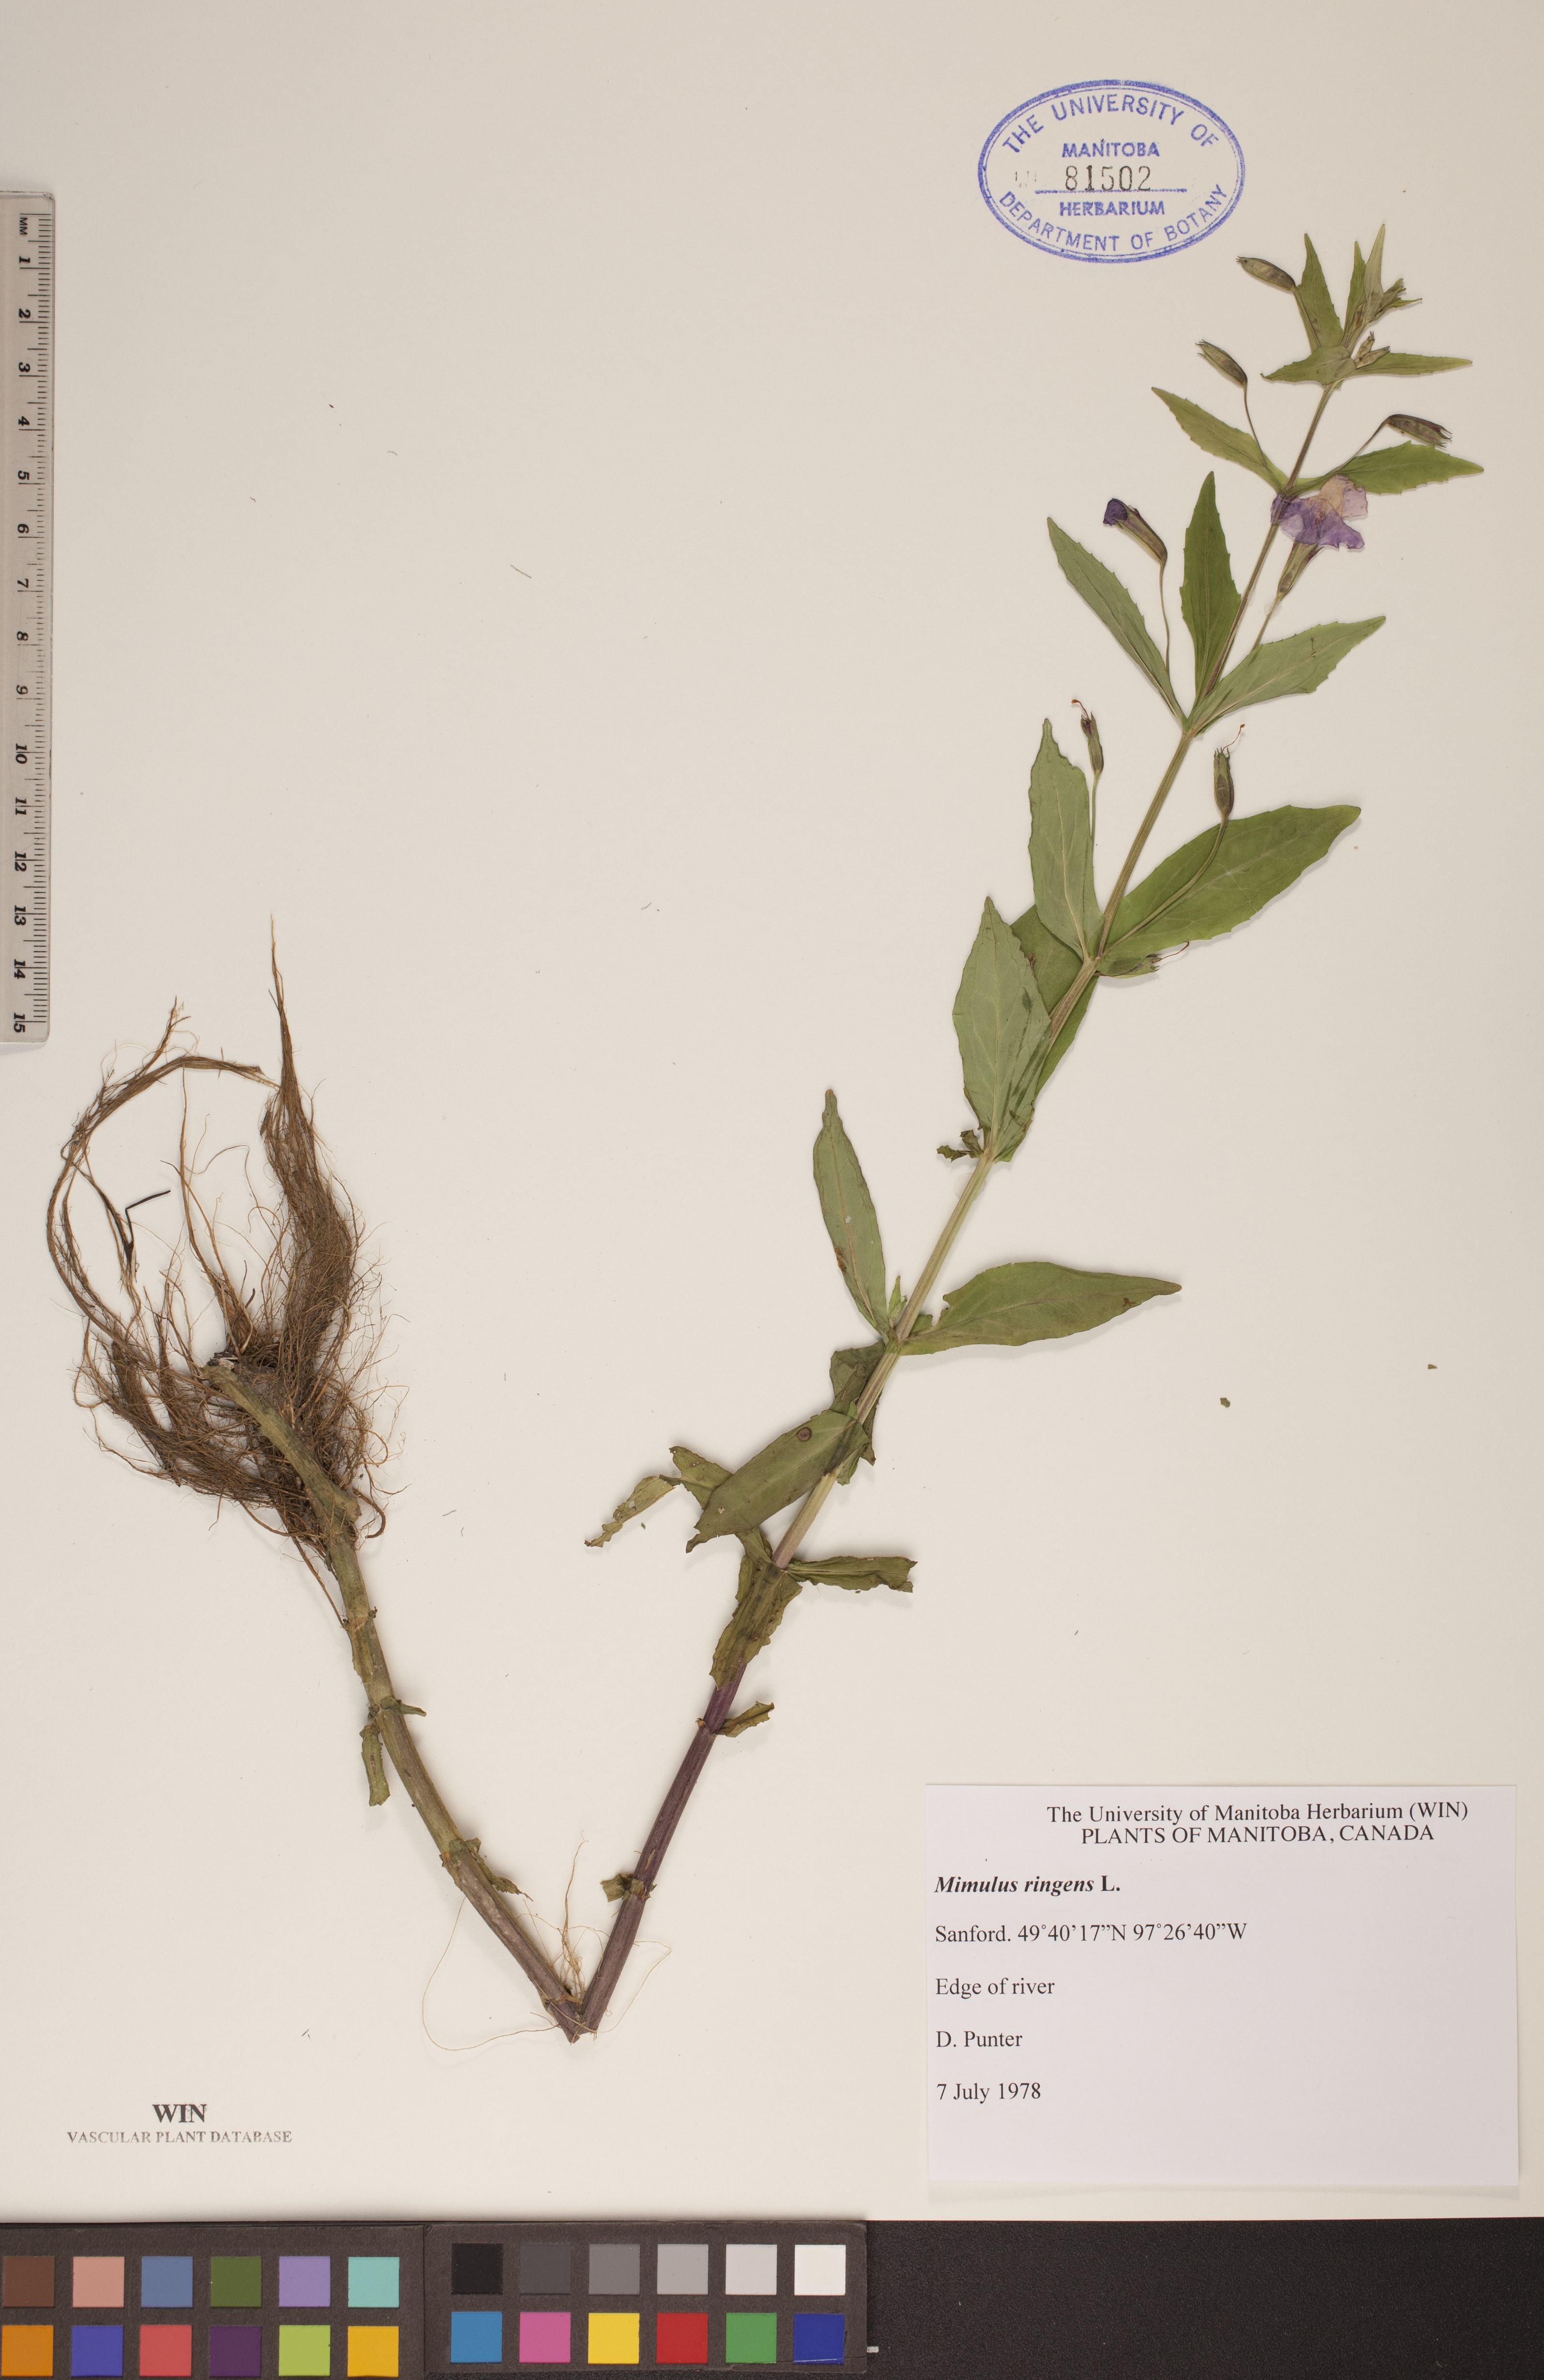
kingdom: Plantae
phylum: Tracheophyta
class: Magnoliopsida
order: Lamiales
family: Phrymaceae
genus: Mimulus
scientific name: Mimulus ringens
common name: Allegheny monkeyflower
